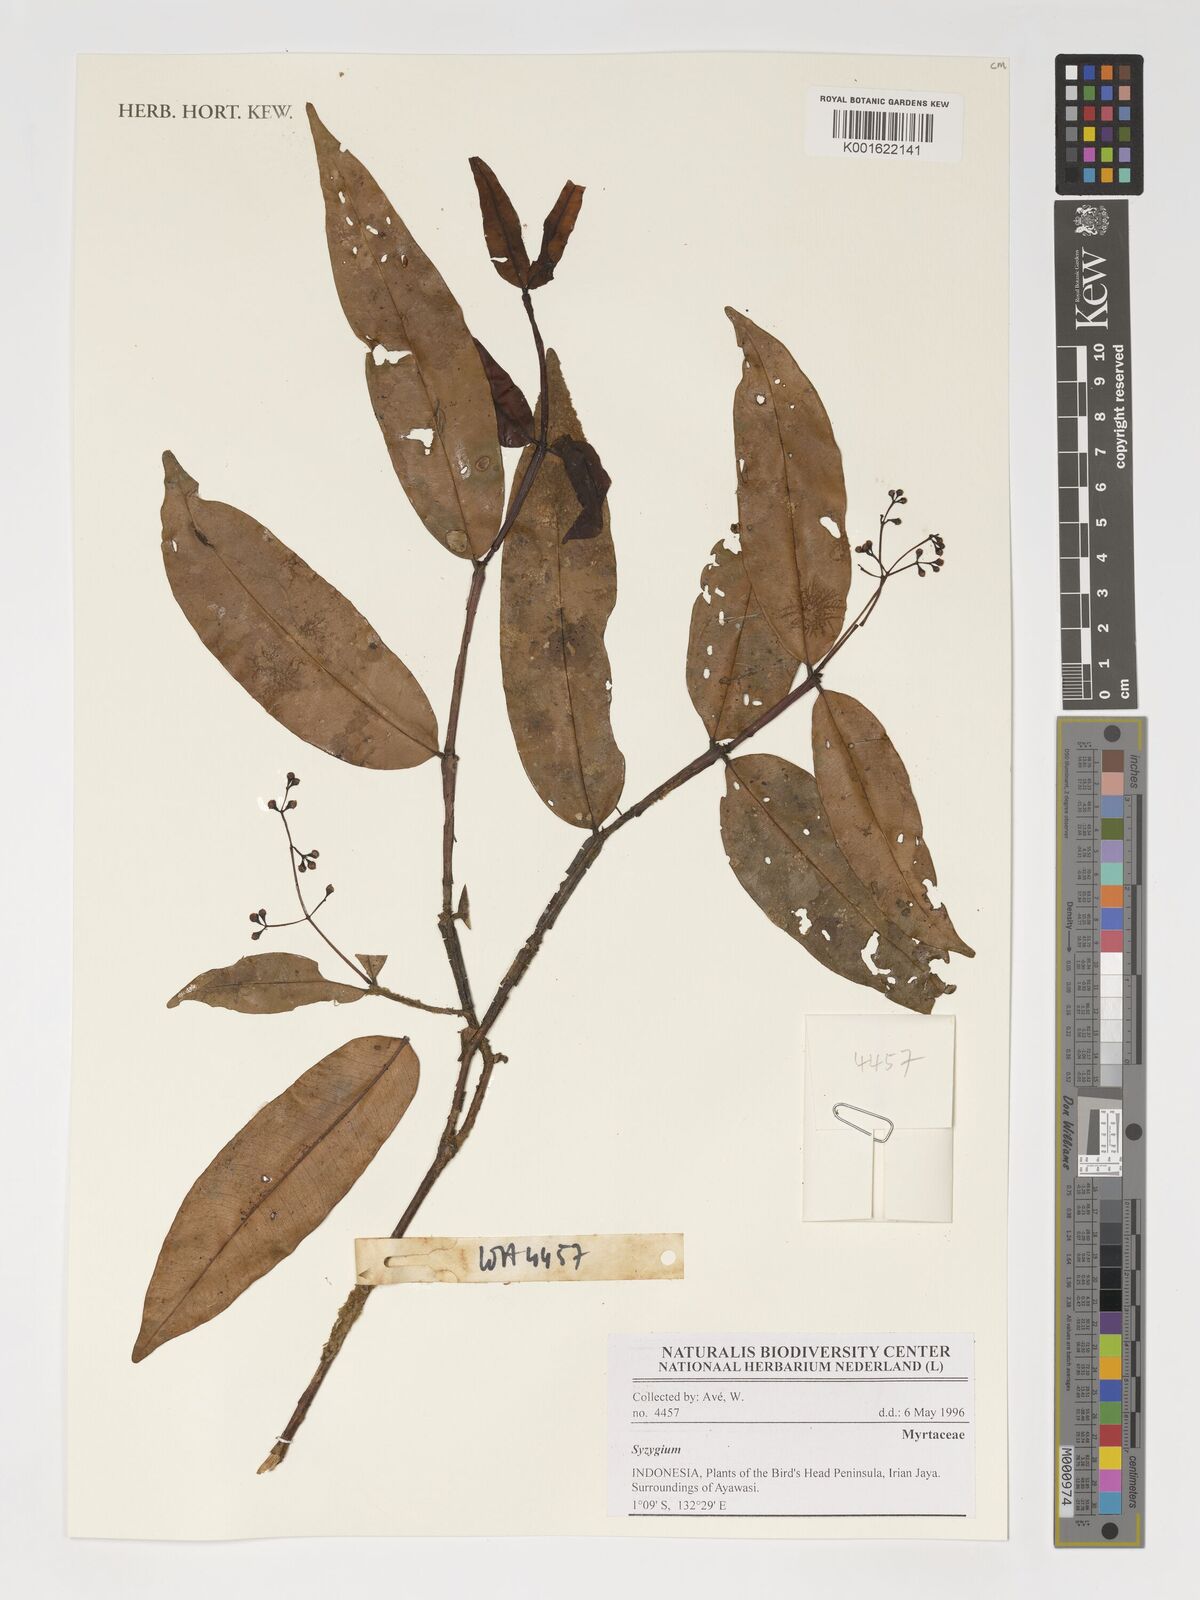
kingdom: Plantae
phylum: Tracheophyta
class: Magnoliopsida
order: Myrtales
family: Myrtaceae
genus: Syzygium
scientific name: Syzygium
